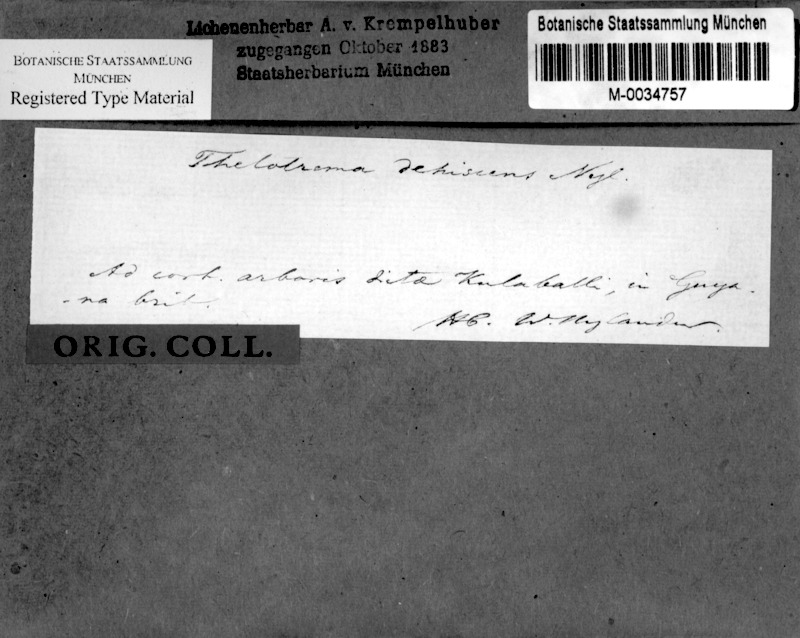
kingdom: Fungi
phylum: Ascomycota
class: Lecanoromycetes
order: Ostropales
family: Graphidaceae
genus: Fibrillithecis
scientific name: Fibrillithecis dehiscens
